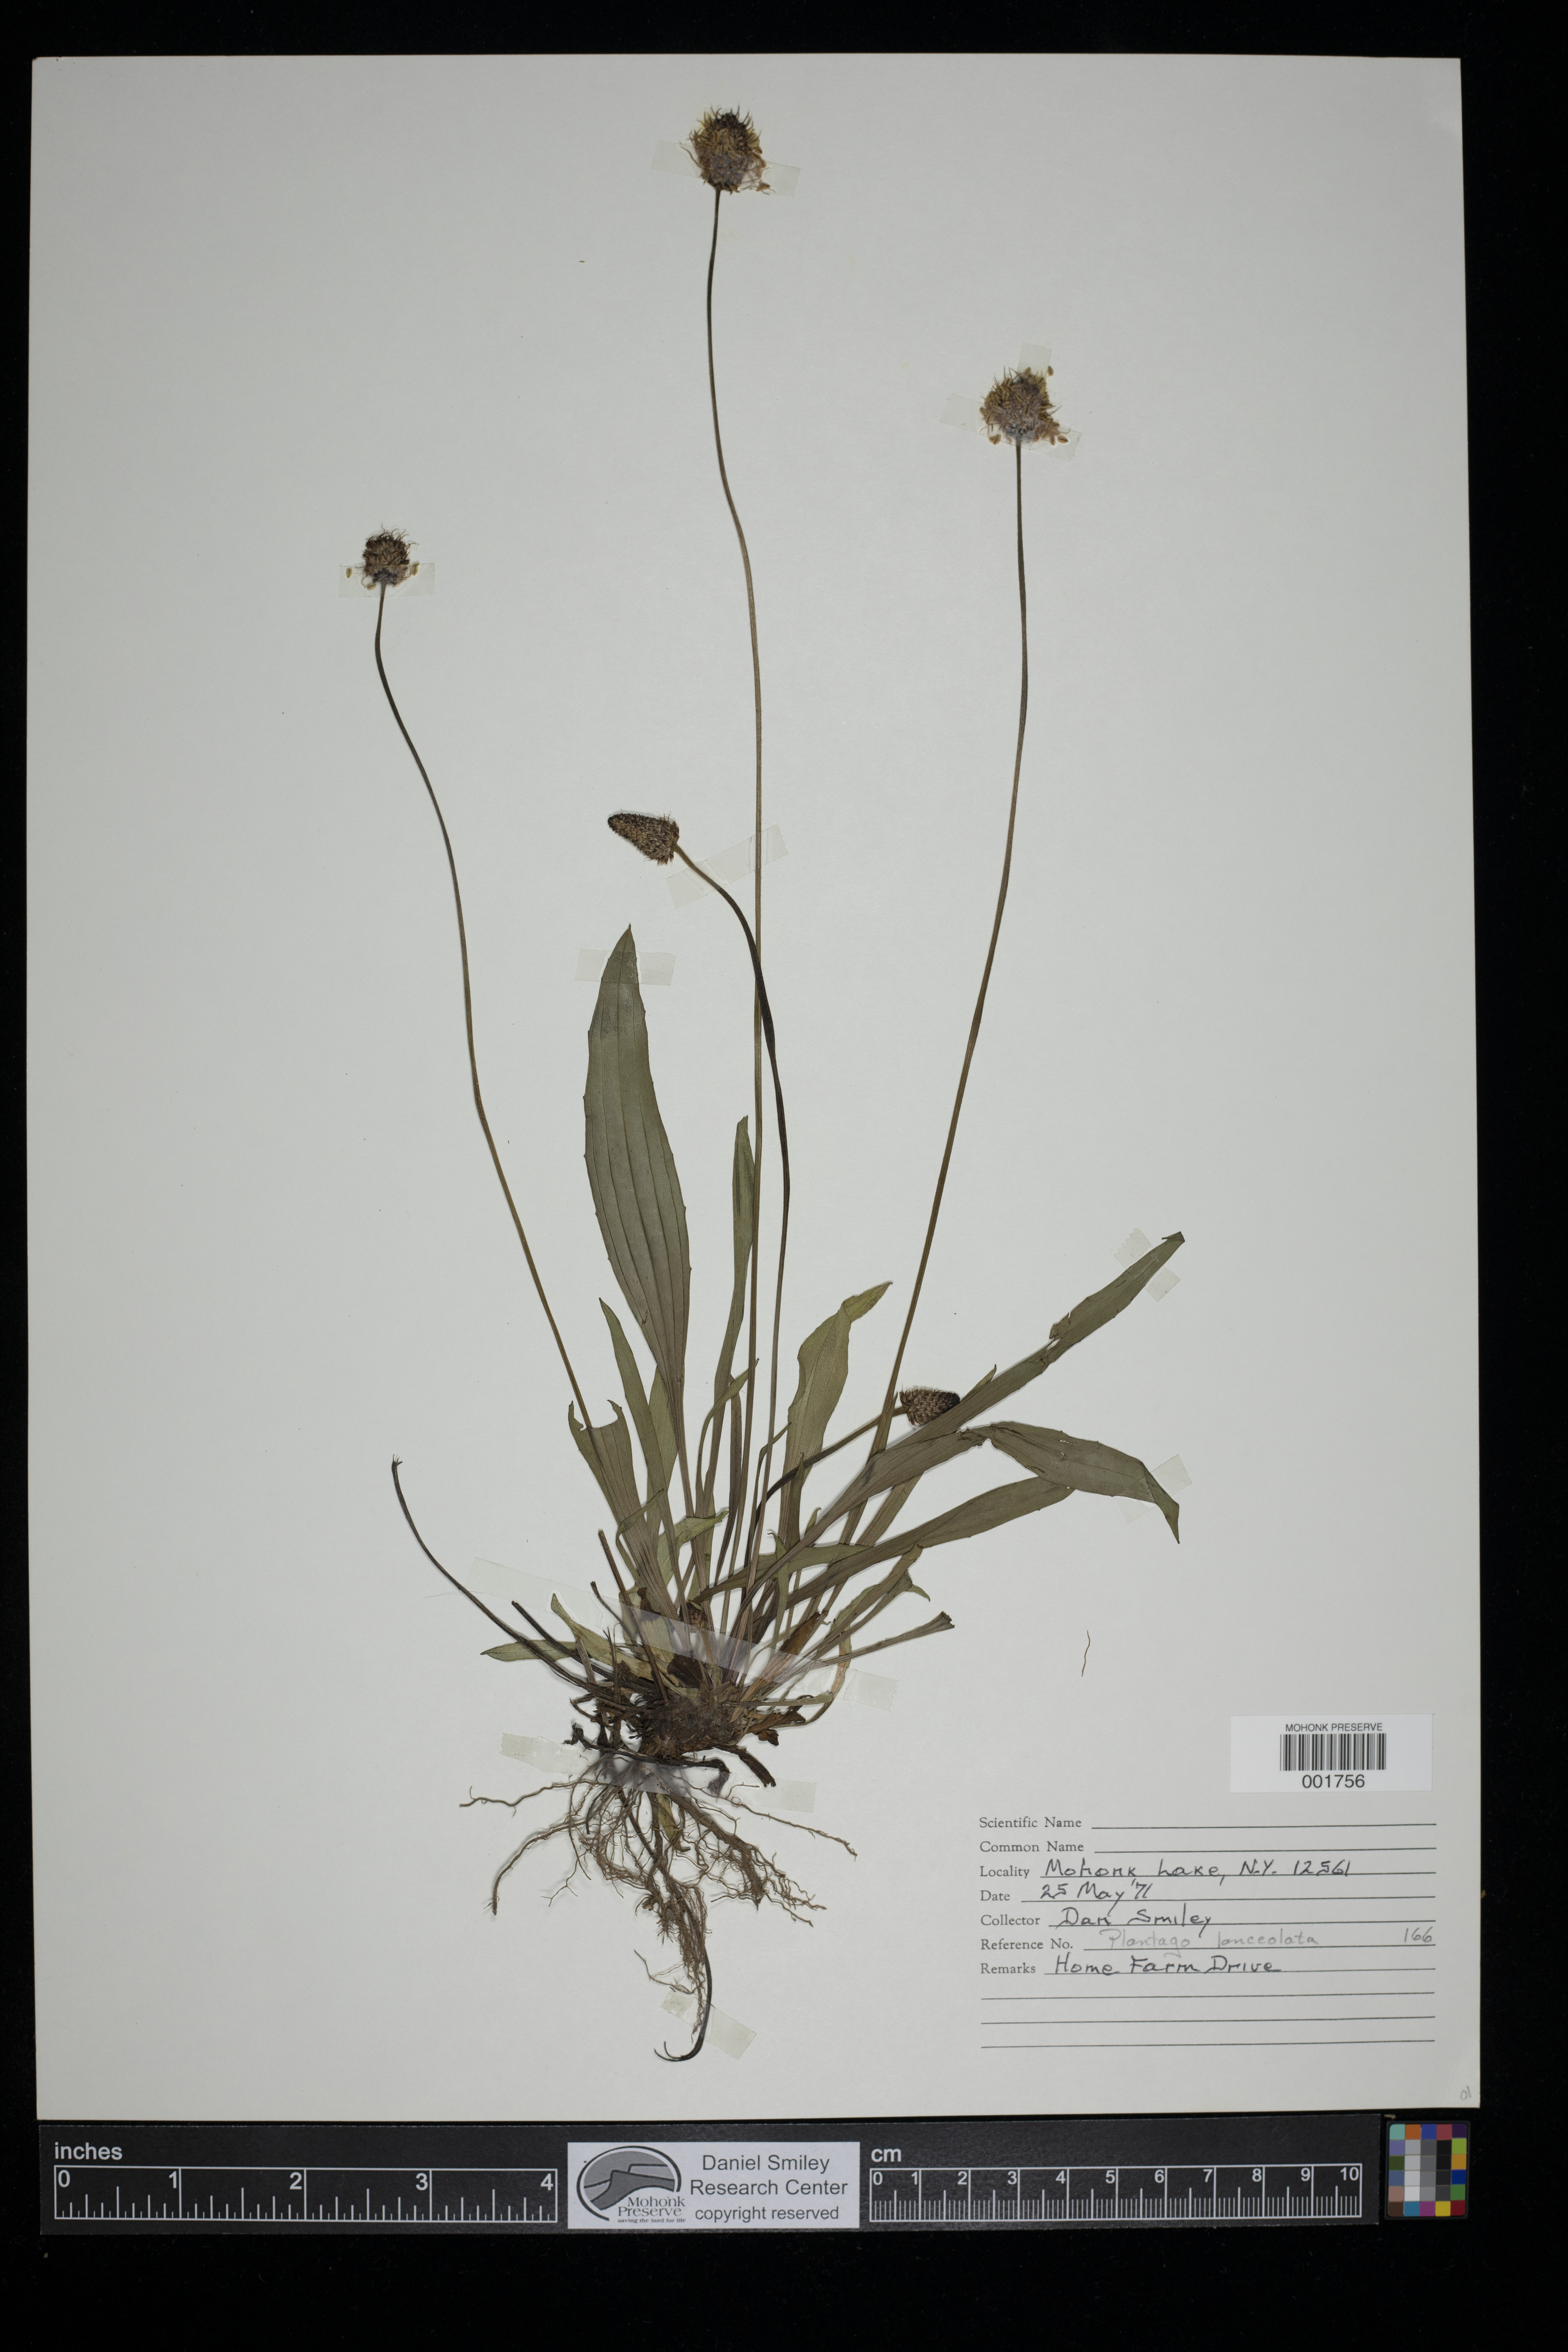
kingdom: Plantae
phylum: Tracheophyta
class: Magnoliopsida
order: Lamiales
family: Plantaginaceae
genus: Plantago
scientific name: Plantago lanceolata
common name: Ribwort plantain
